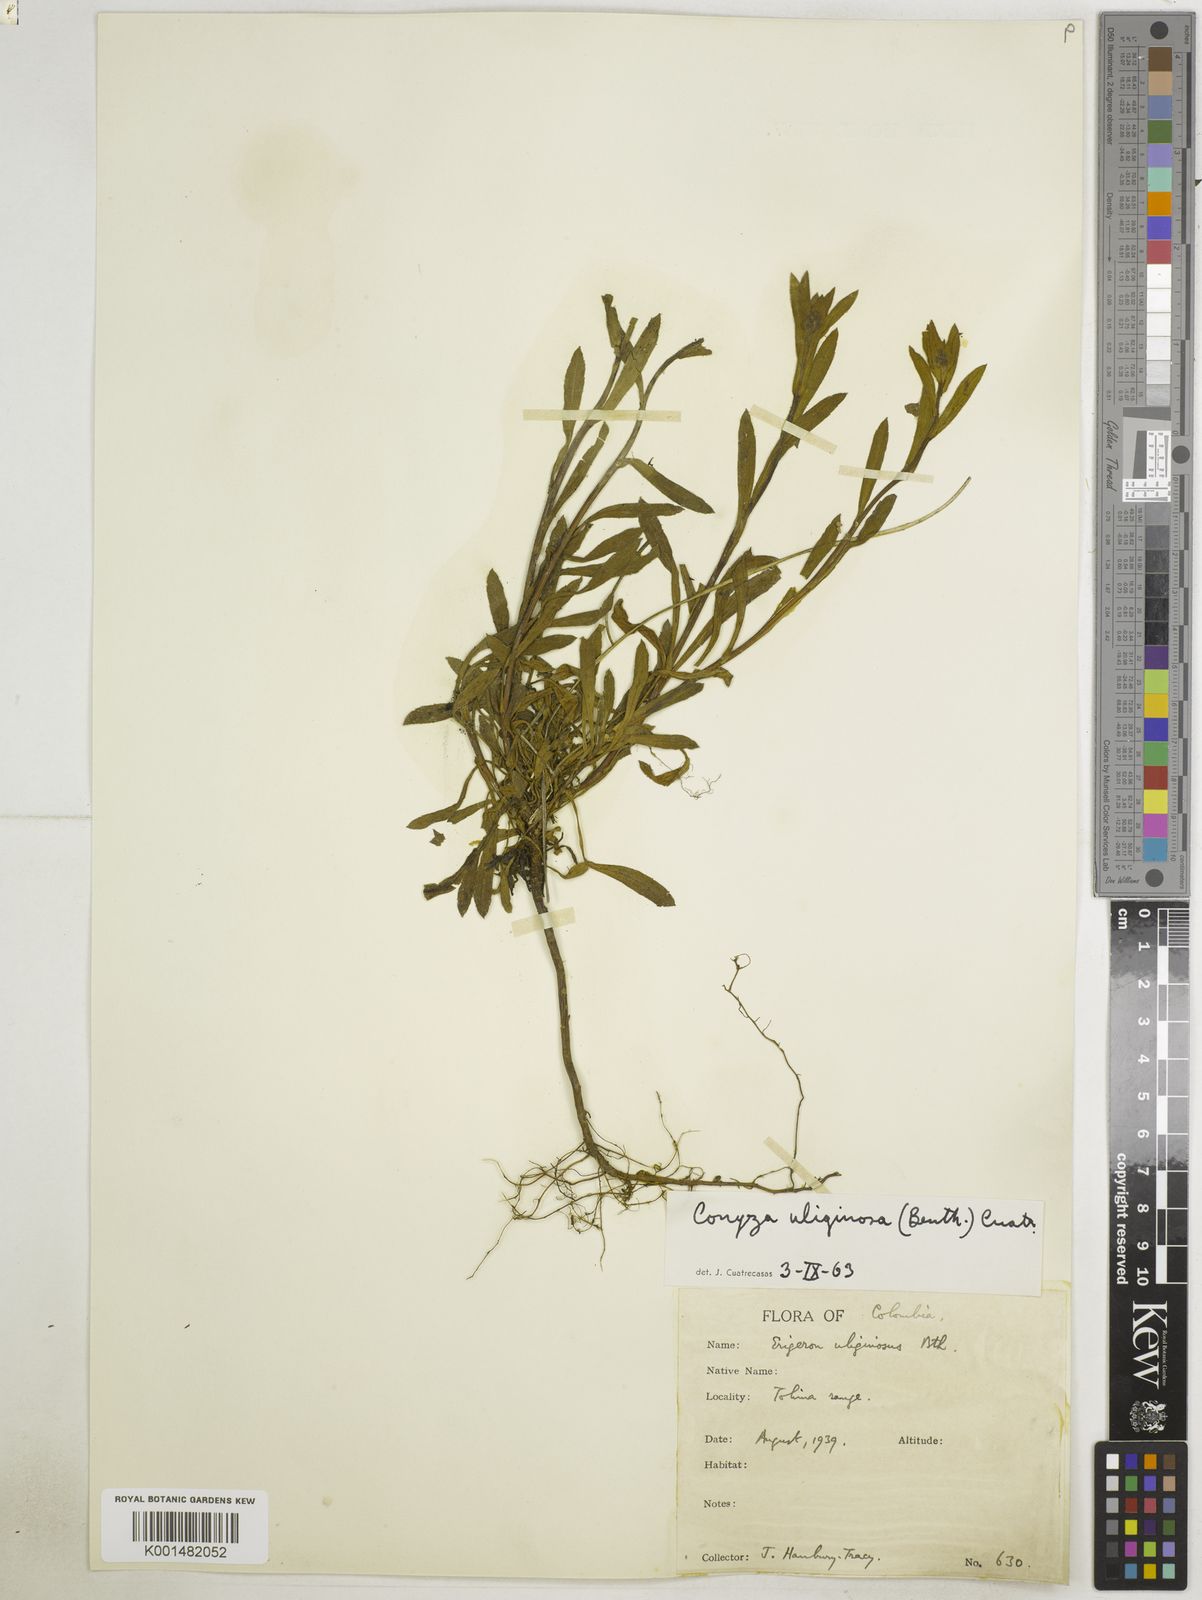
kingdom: Plantae
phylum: Tracheophyta
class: Magnoliopsida
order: Asterales
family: Asteraceae
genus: Erigeron
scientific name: Erigeron uliginosus
